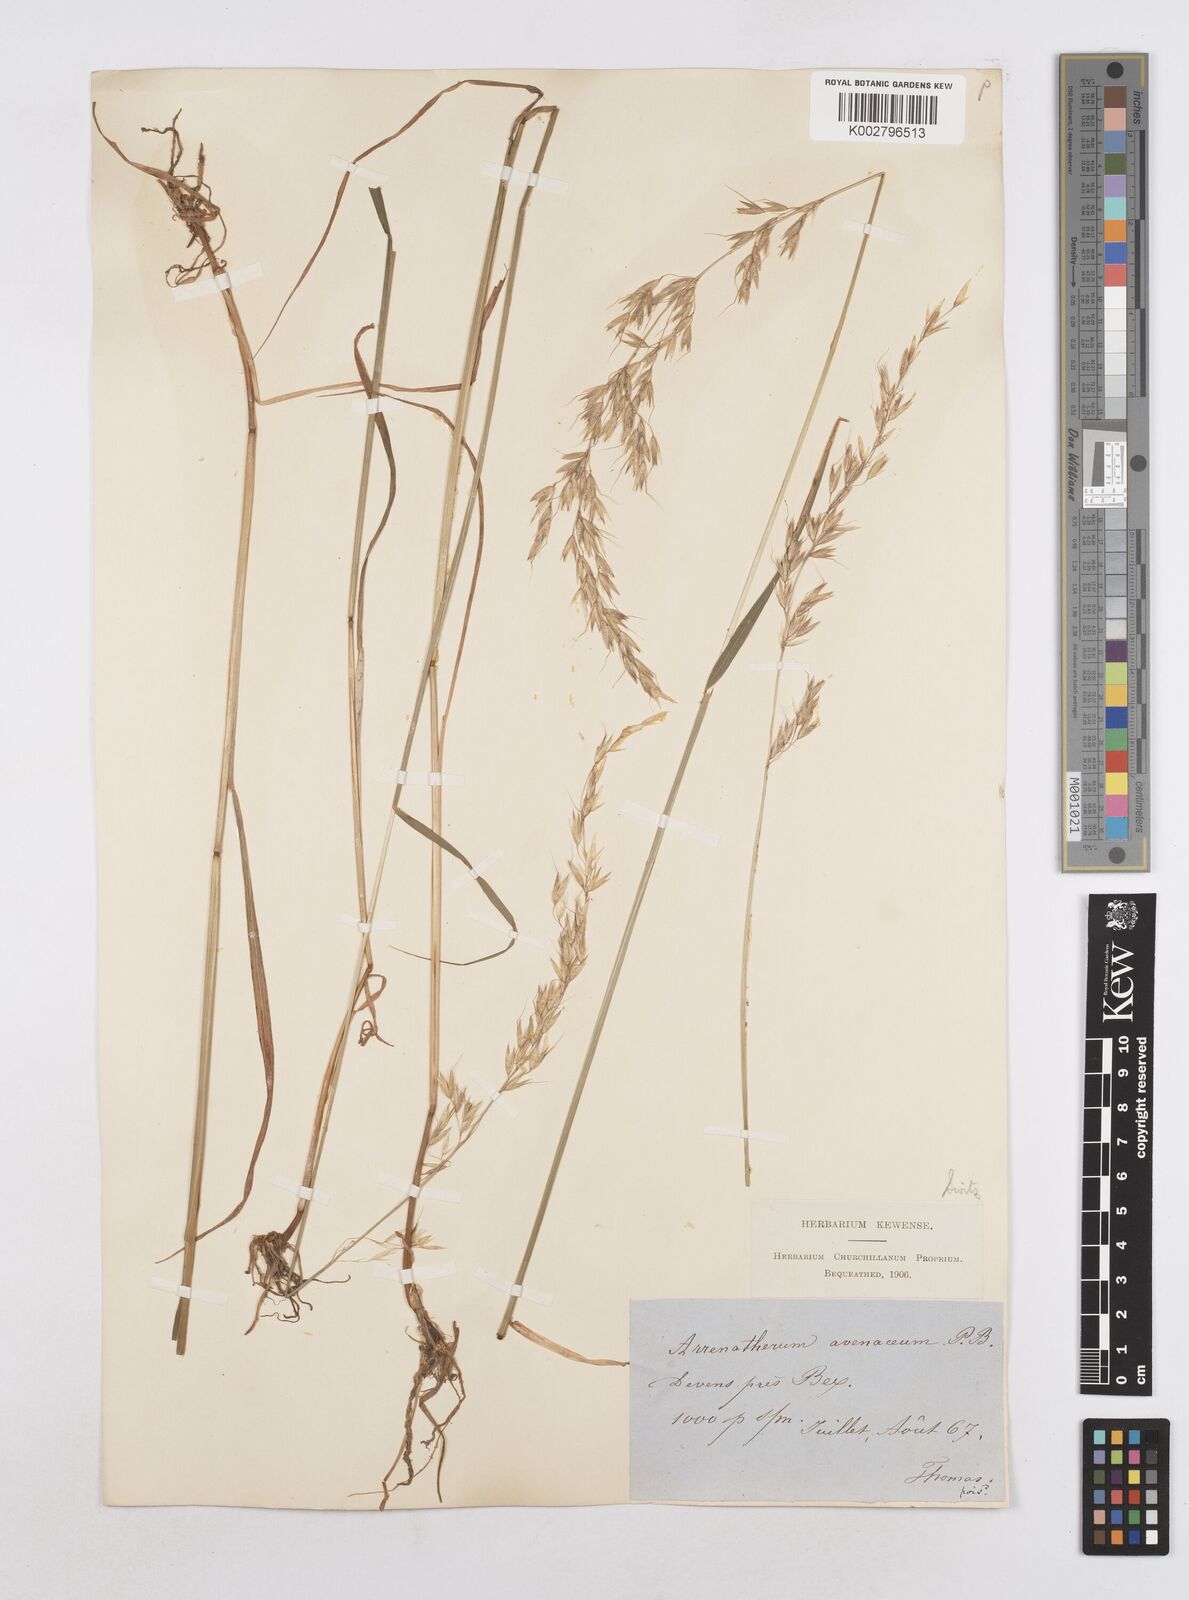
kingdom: Plantae
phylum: Tracheophyta
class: Liliopsida
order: Poales
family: Poaceae
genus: Arrhenatherum
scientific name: Arrhenatherum elatius
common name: Tall oatgrass
